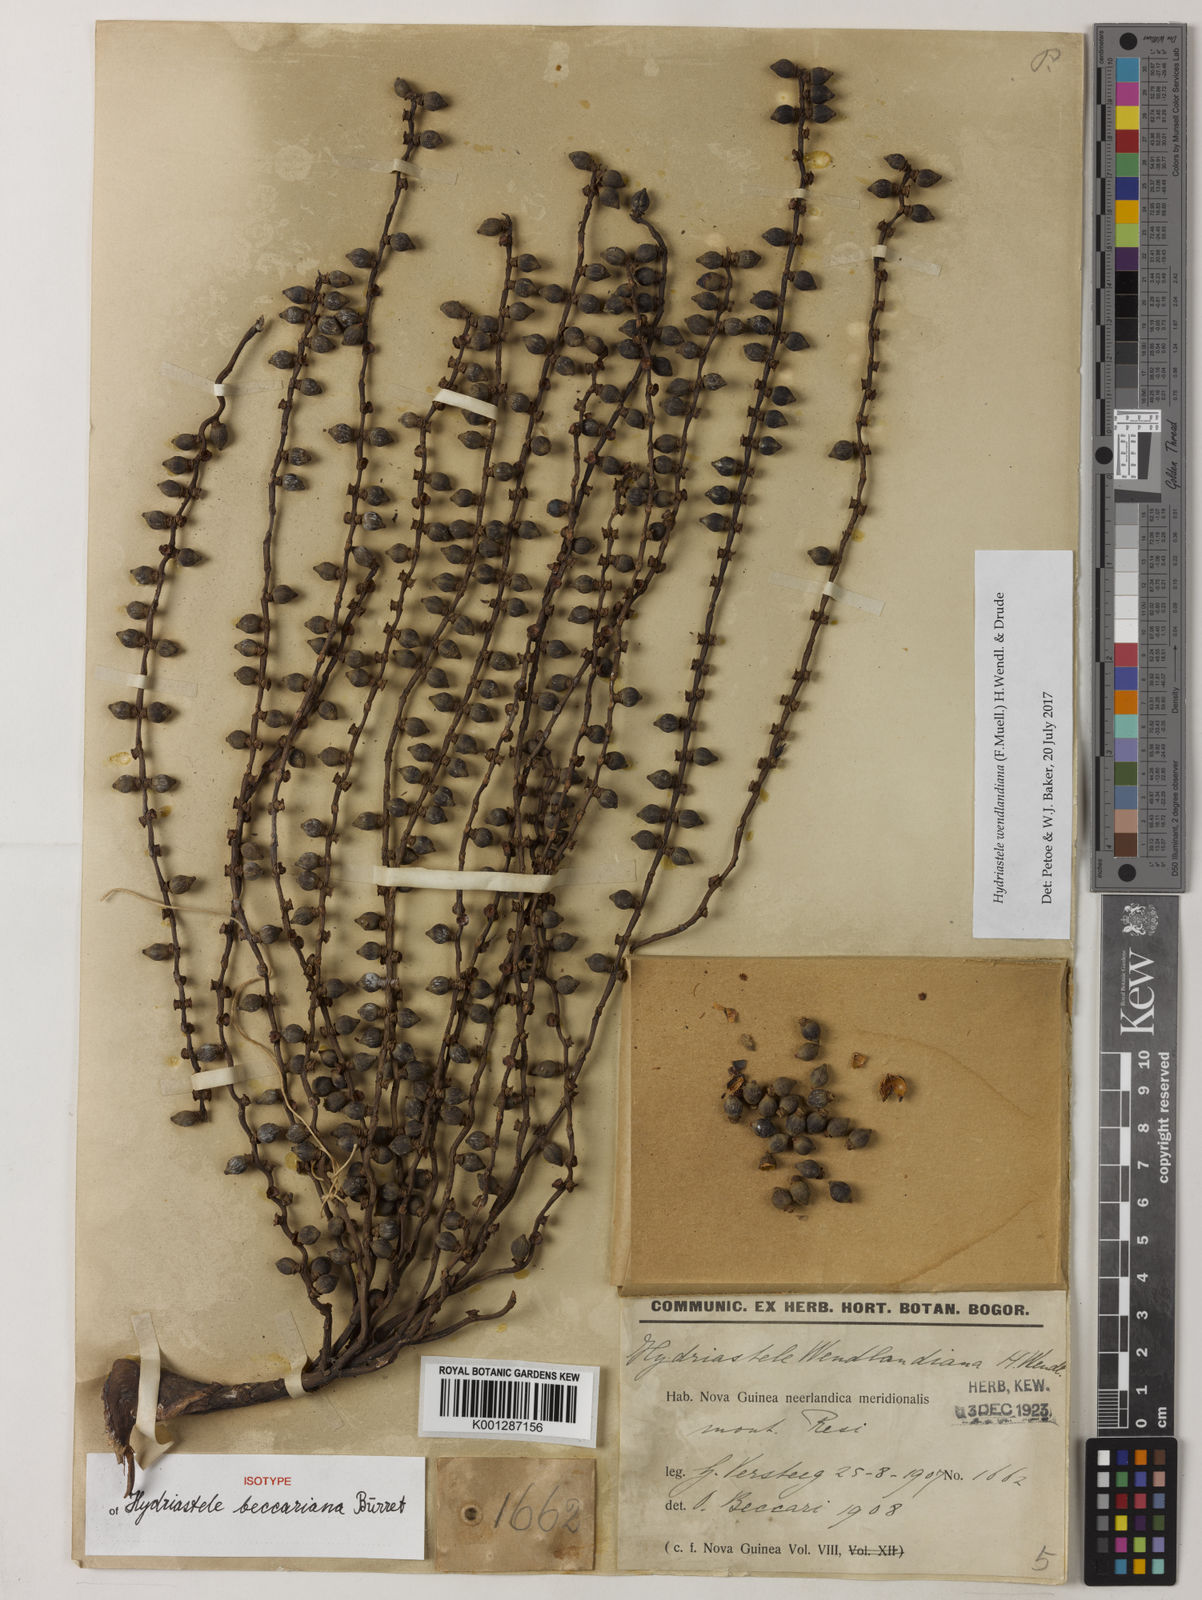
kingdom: Plantae
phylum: Tracheophyta
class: Liliopsida
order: Arecales
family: Arecaceae
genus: Hydriastele
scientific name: Hydriastele wendlandiana
